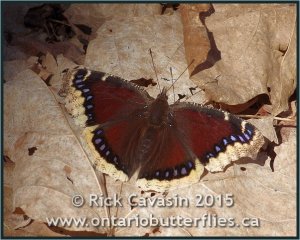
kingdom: Animalia
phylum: Arthropoda
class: Insecta
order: Lepidoptera
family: Nymphalidae
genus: Nymphalis
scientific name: Nymphalis antiopa
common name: Mourning Cloak
